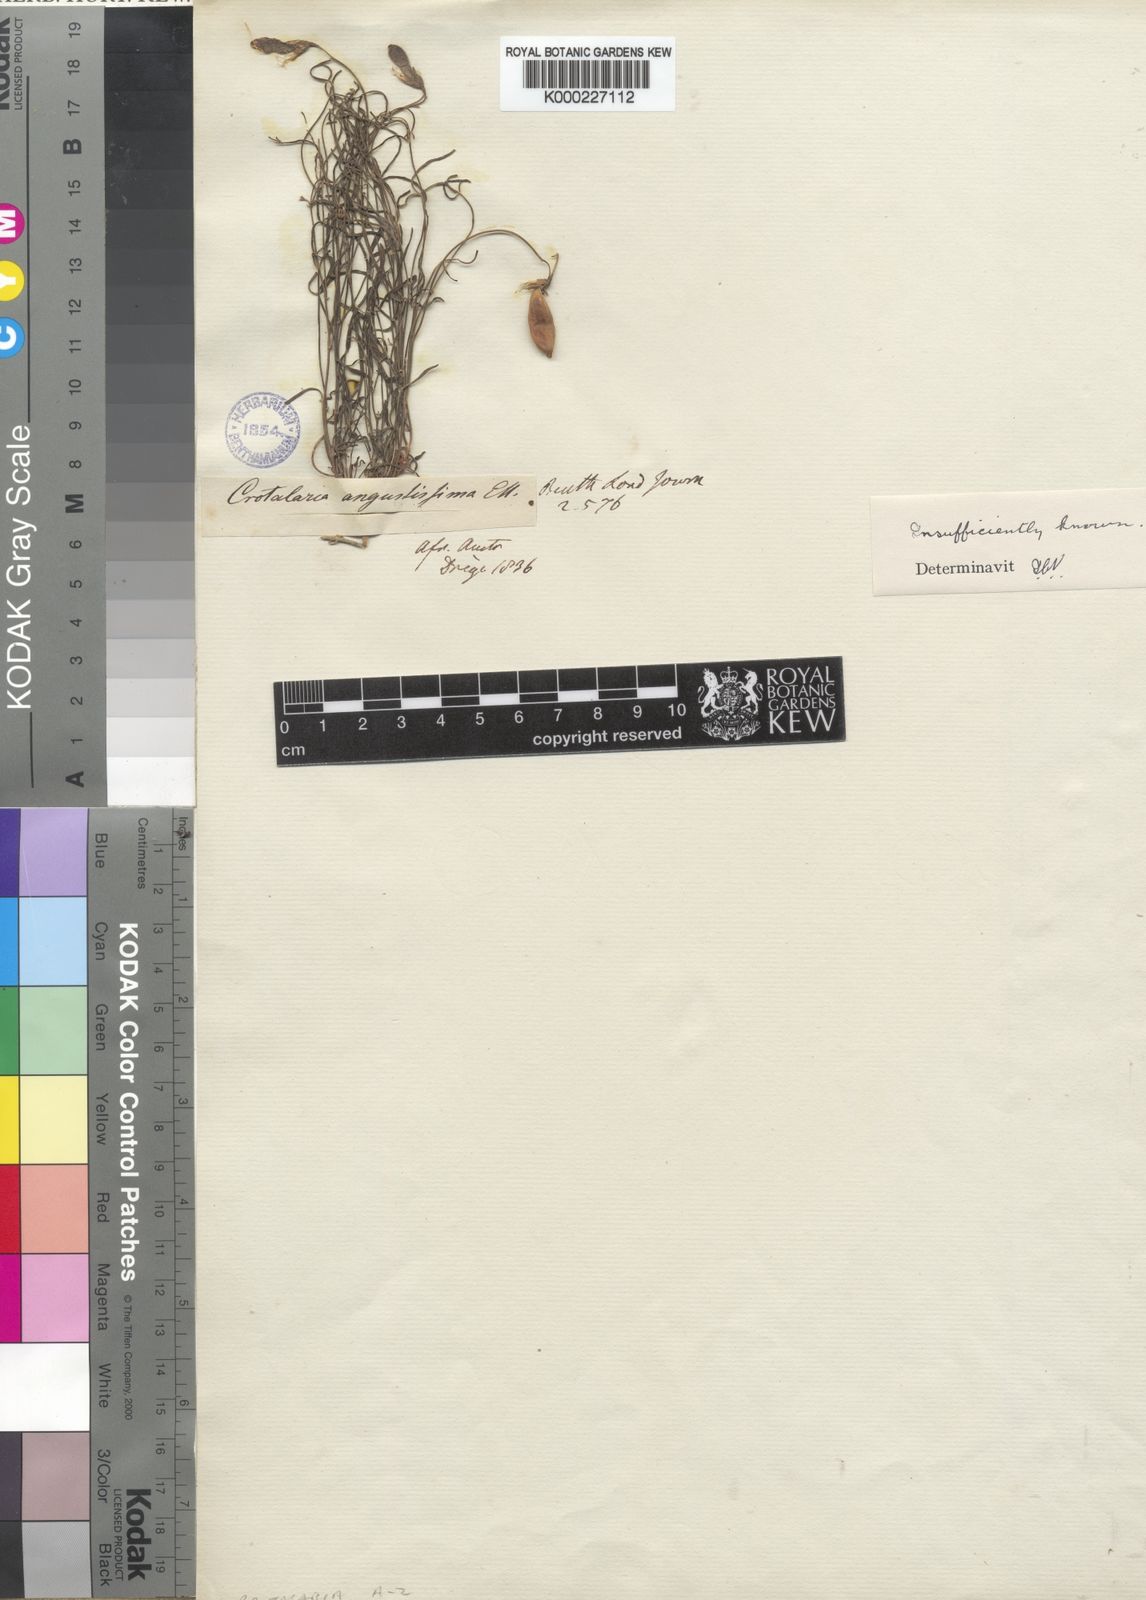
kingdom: Plantae
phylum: Tracheophyta
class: Magnoliopsida
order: Fabales
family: Fabaceae
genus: Crotalaria
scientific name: Crotalaria excisa
